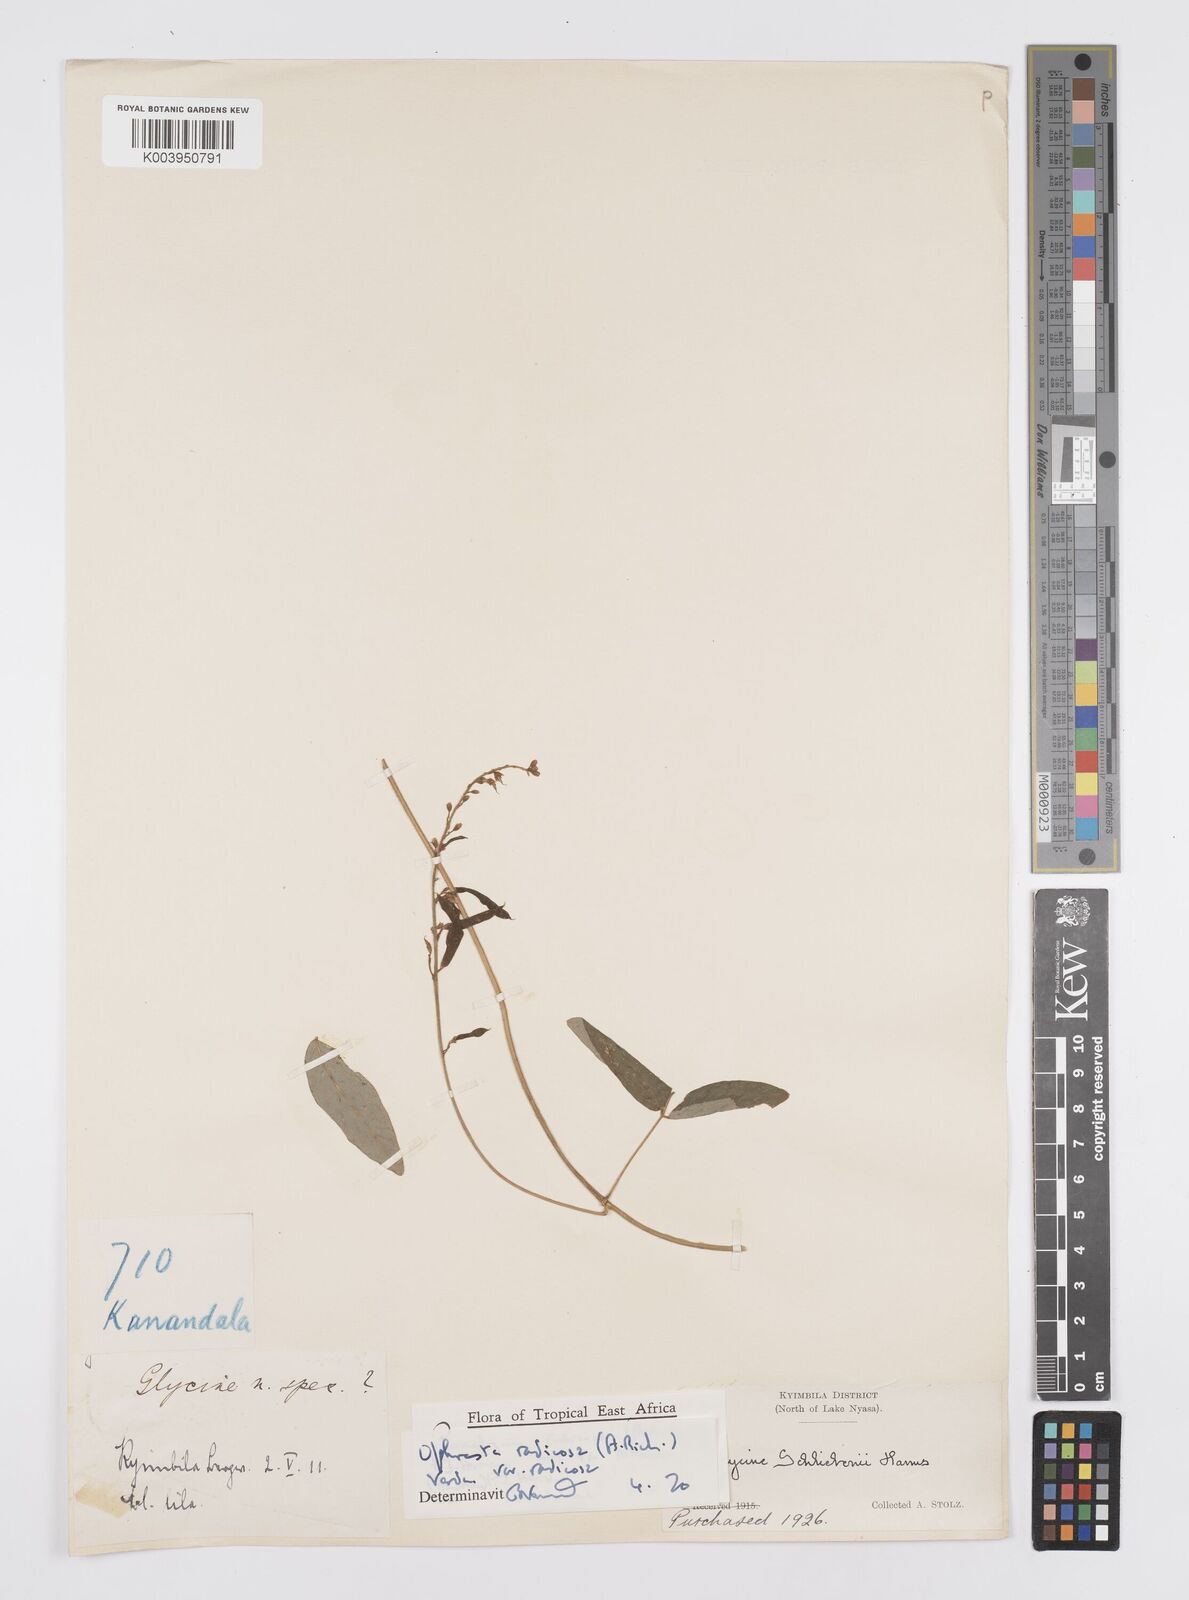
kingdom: Plantae
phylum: Tracheophyta
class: Magnoliopsida
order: Fabales
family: Fabaceae
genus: Ophrestia
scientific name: Ophrestia radicosa
